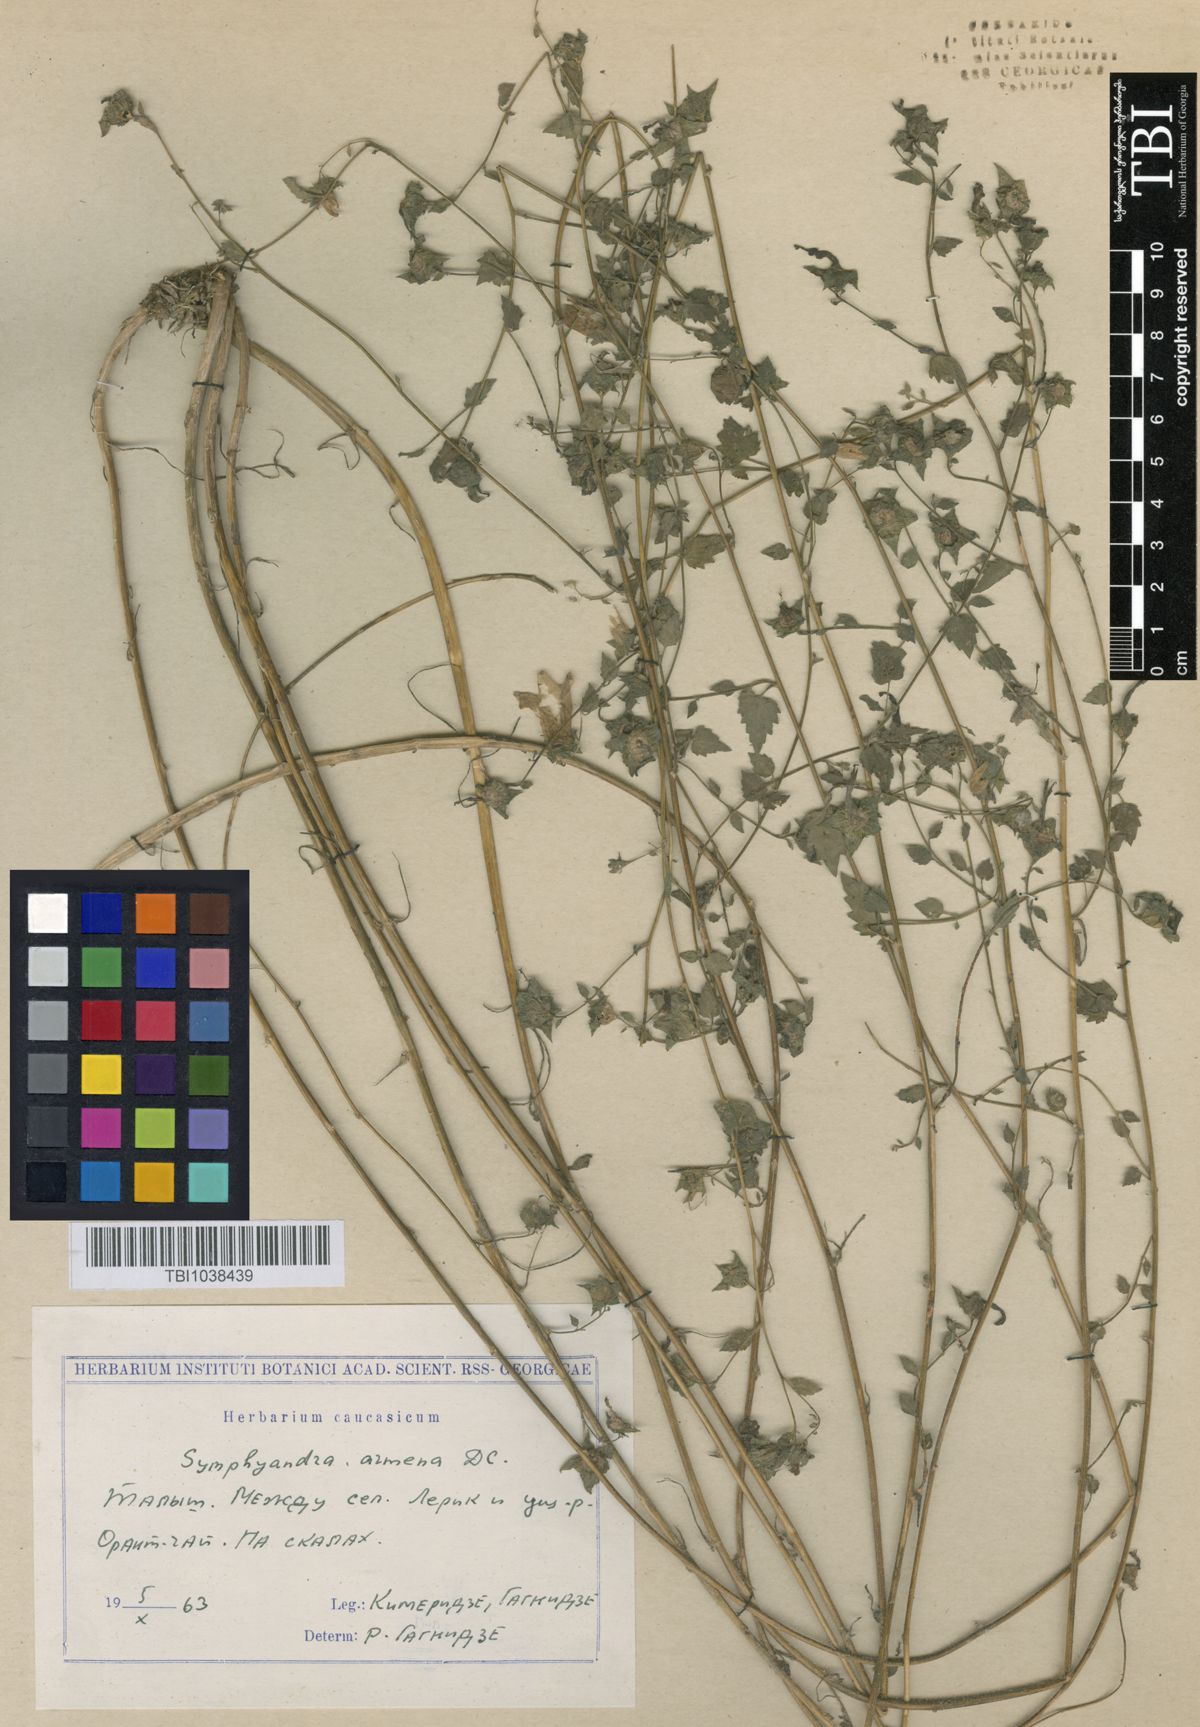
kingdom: Plantae
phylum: Tracheophyta
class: Magnoliopsida
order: Asterales
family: Campanulaceae
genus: Campanula
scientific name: Campanula armena
